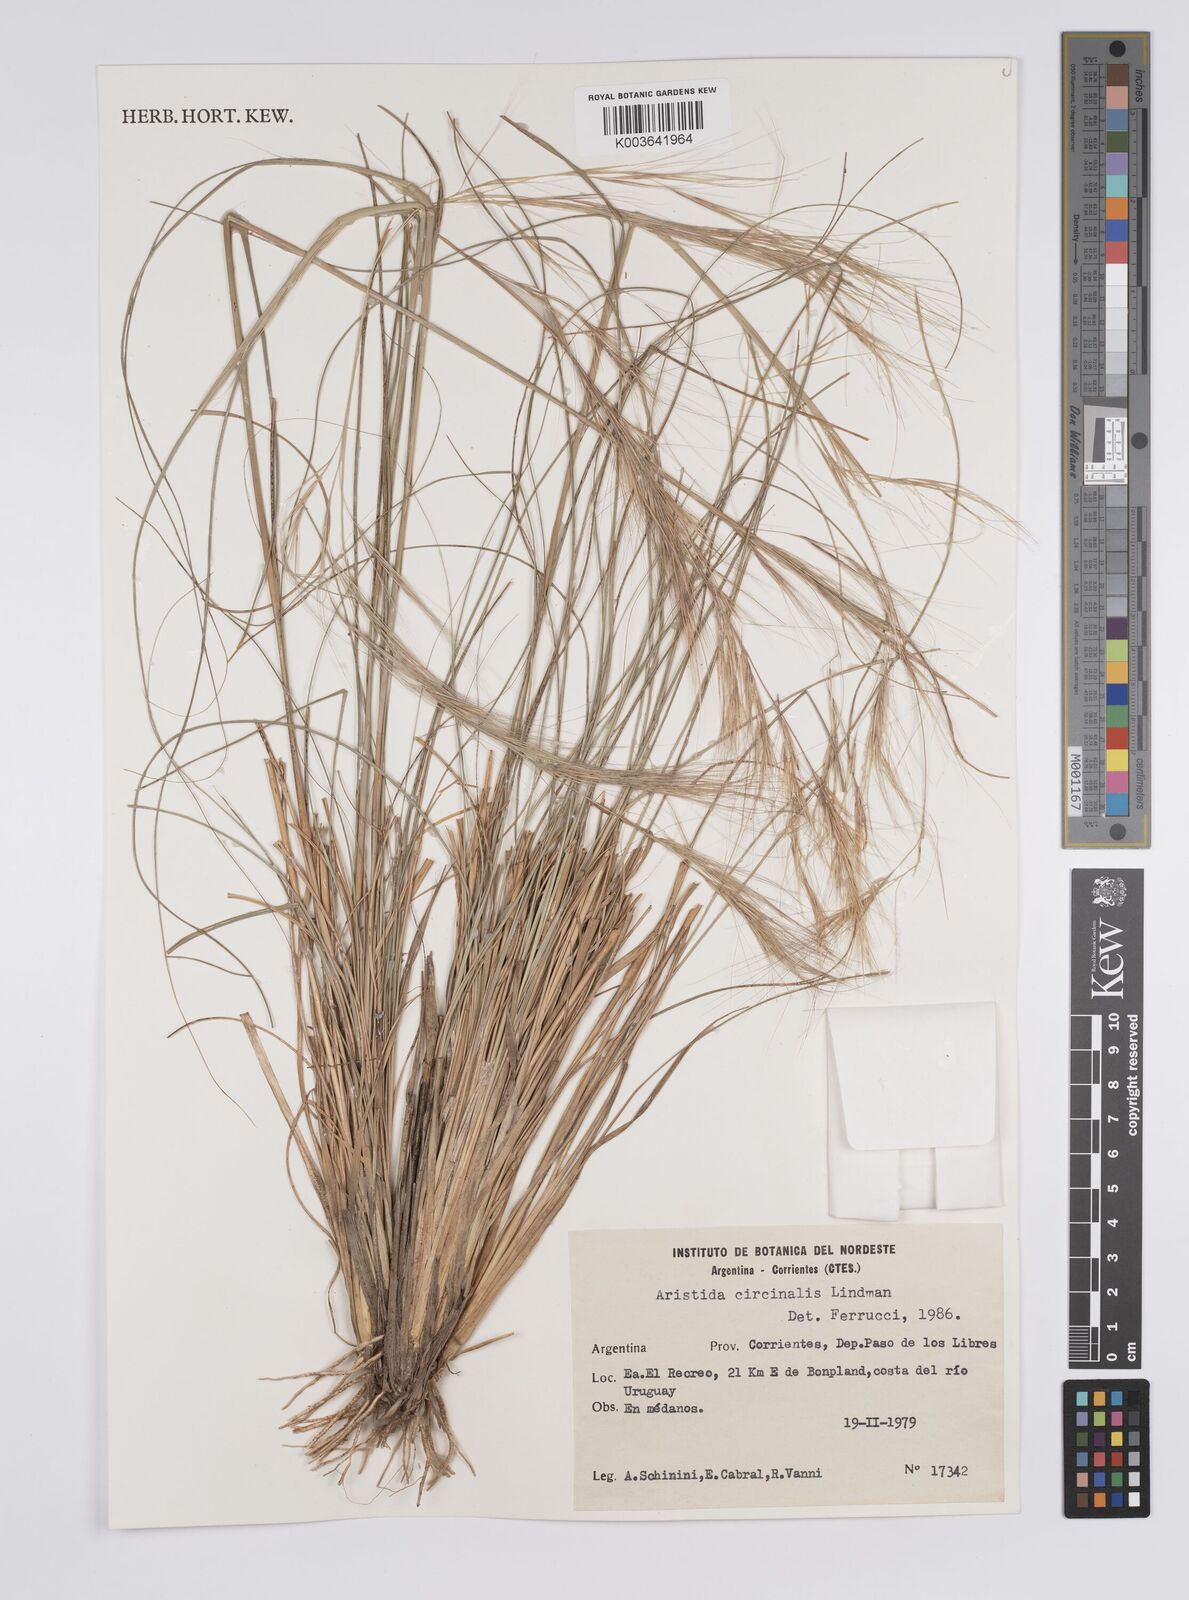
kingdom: Plantae
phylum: Tracheophyta
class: Liliopsida
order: Poales
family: Poaceae
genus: Aristida
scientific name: Aristida circinalis
